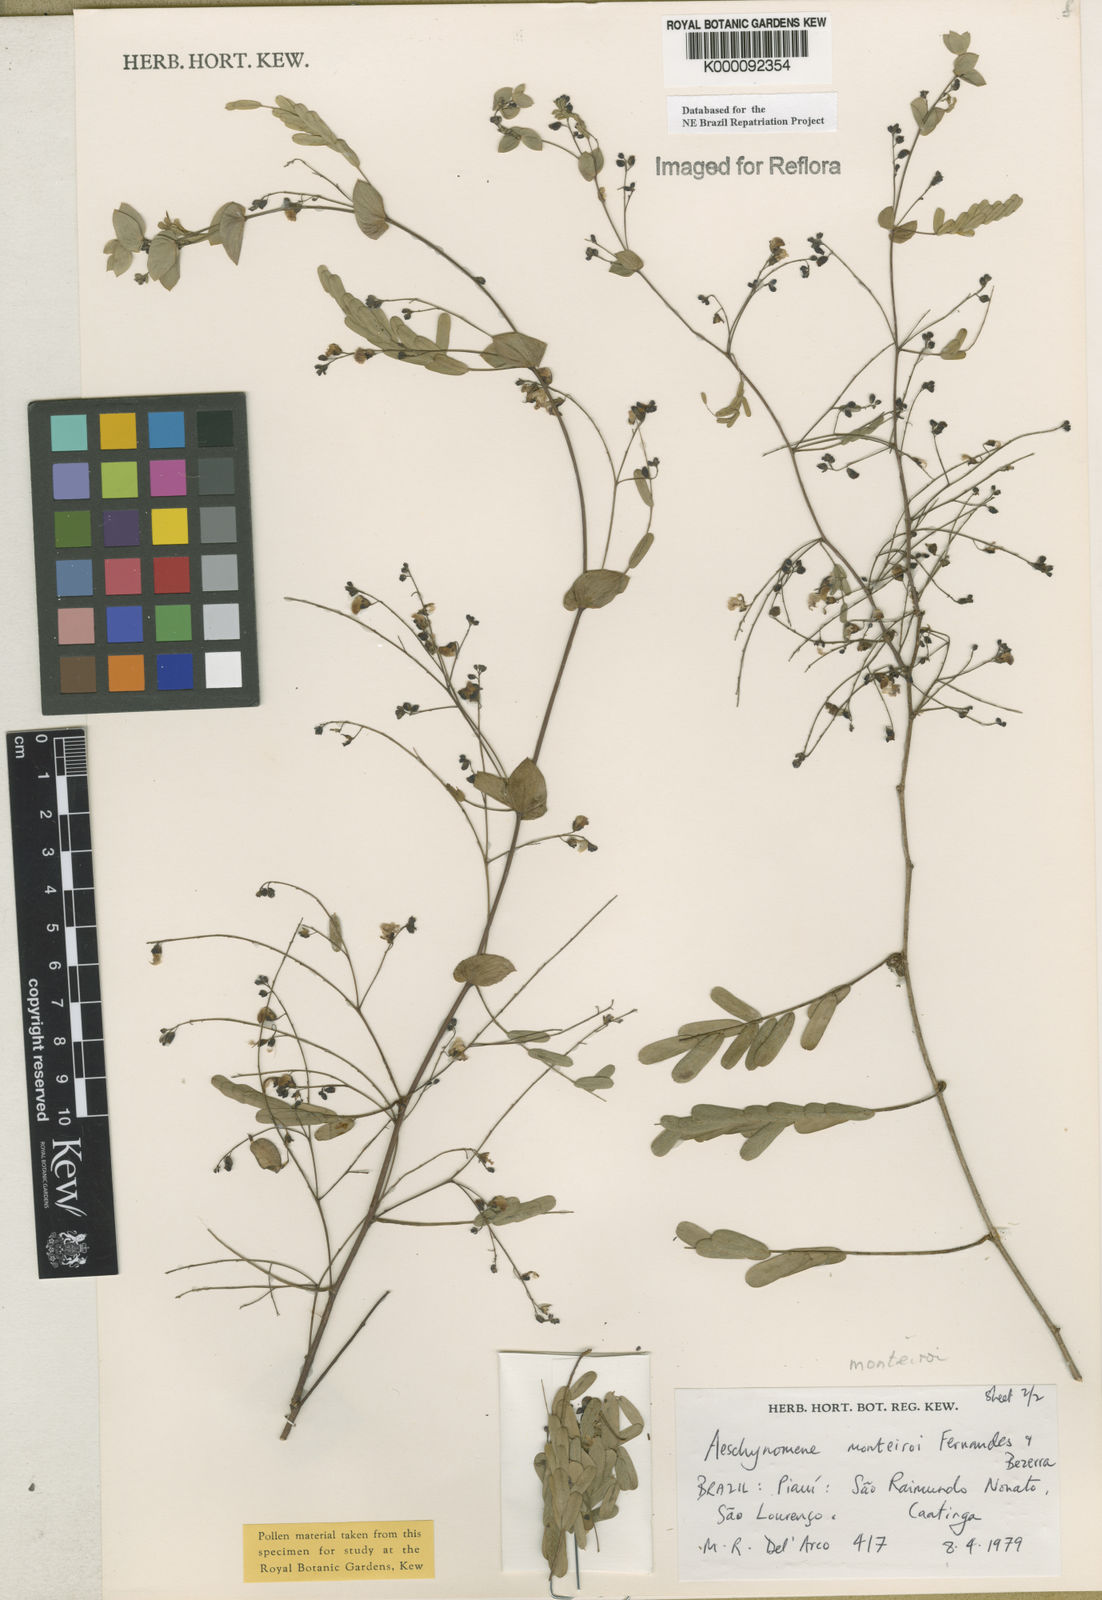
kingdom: Plantae
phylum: Tracheophyta
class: Magnoliopsida
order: Fabales
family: Fabaceae
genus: Ctenodon
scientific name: Ctenodon monteiroi
